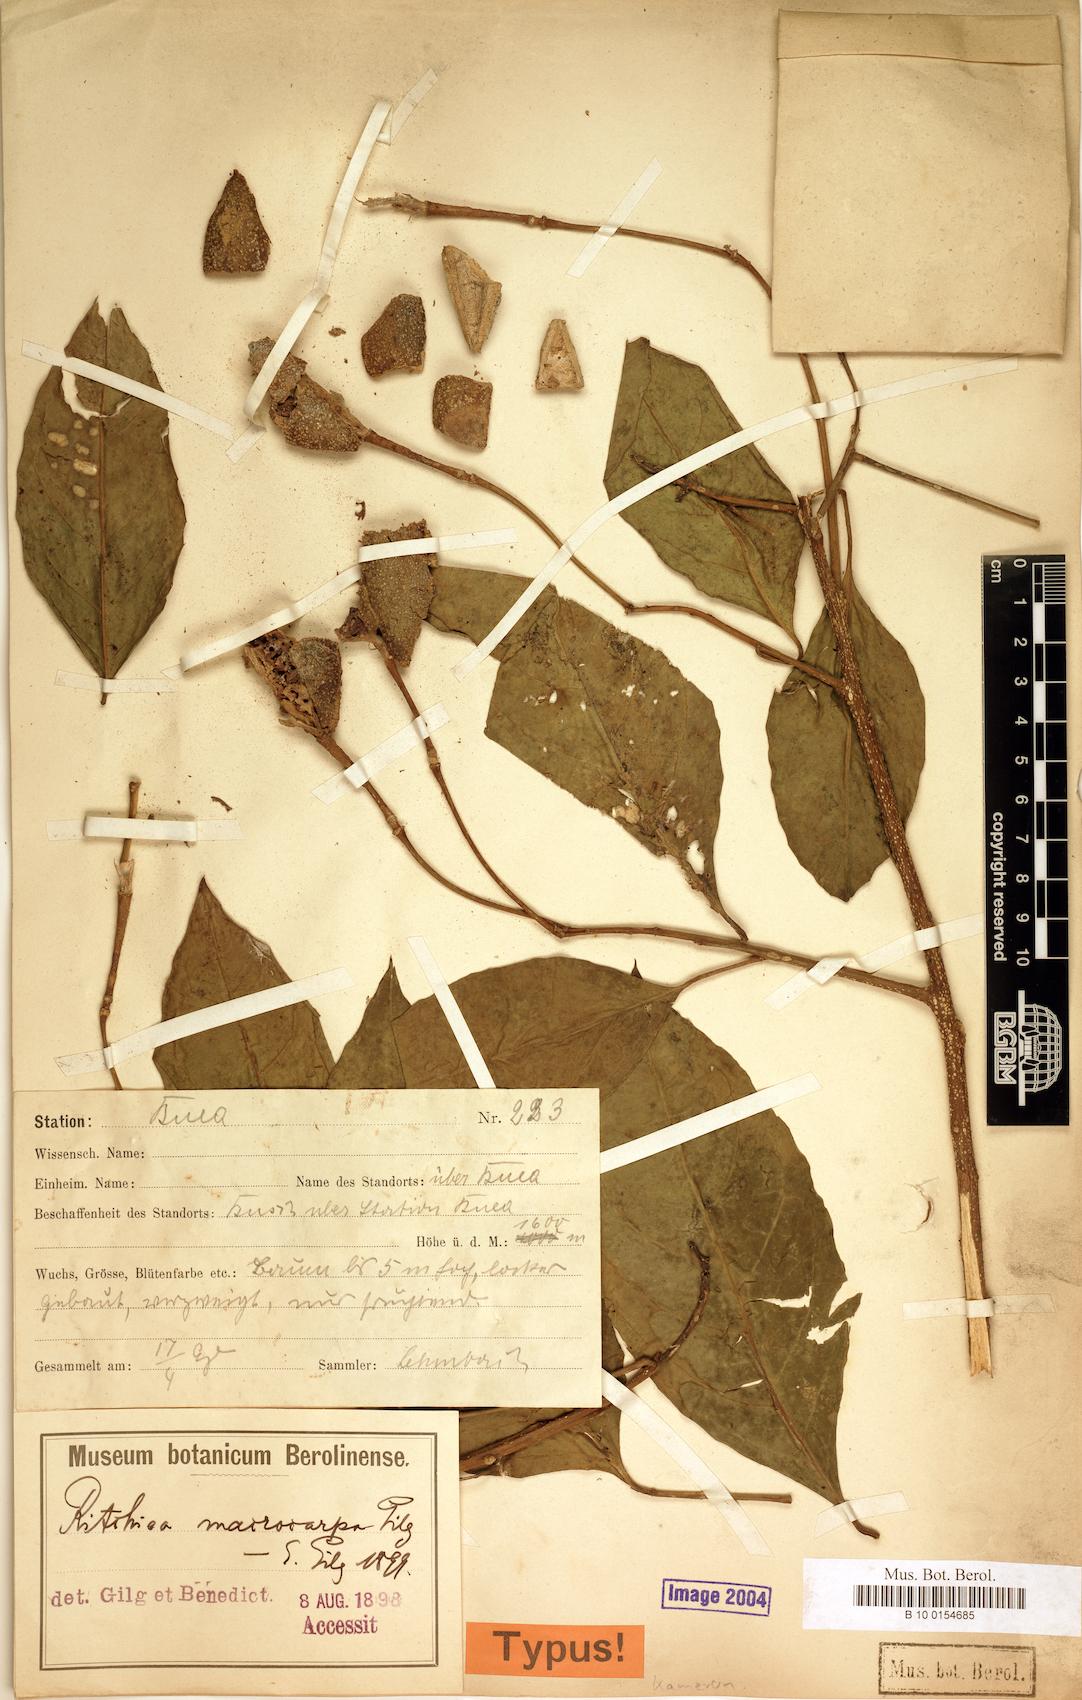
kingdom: Plantae
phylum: Tracheophyta
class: Magnoliopsida
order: Brassicales
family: Capparaceae
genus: Ritchiea
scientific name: Ritchiea albersii
